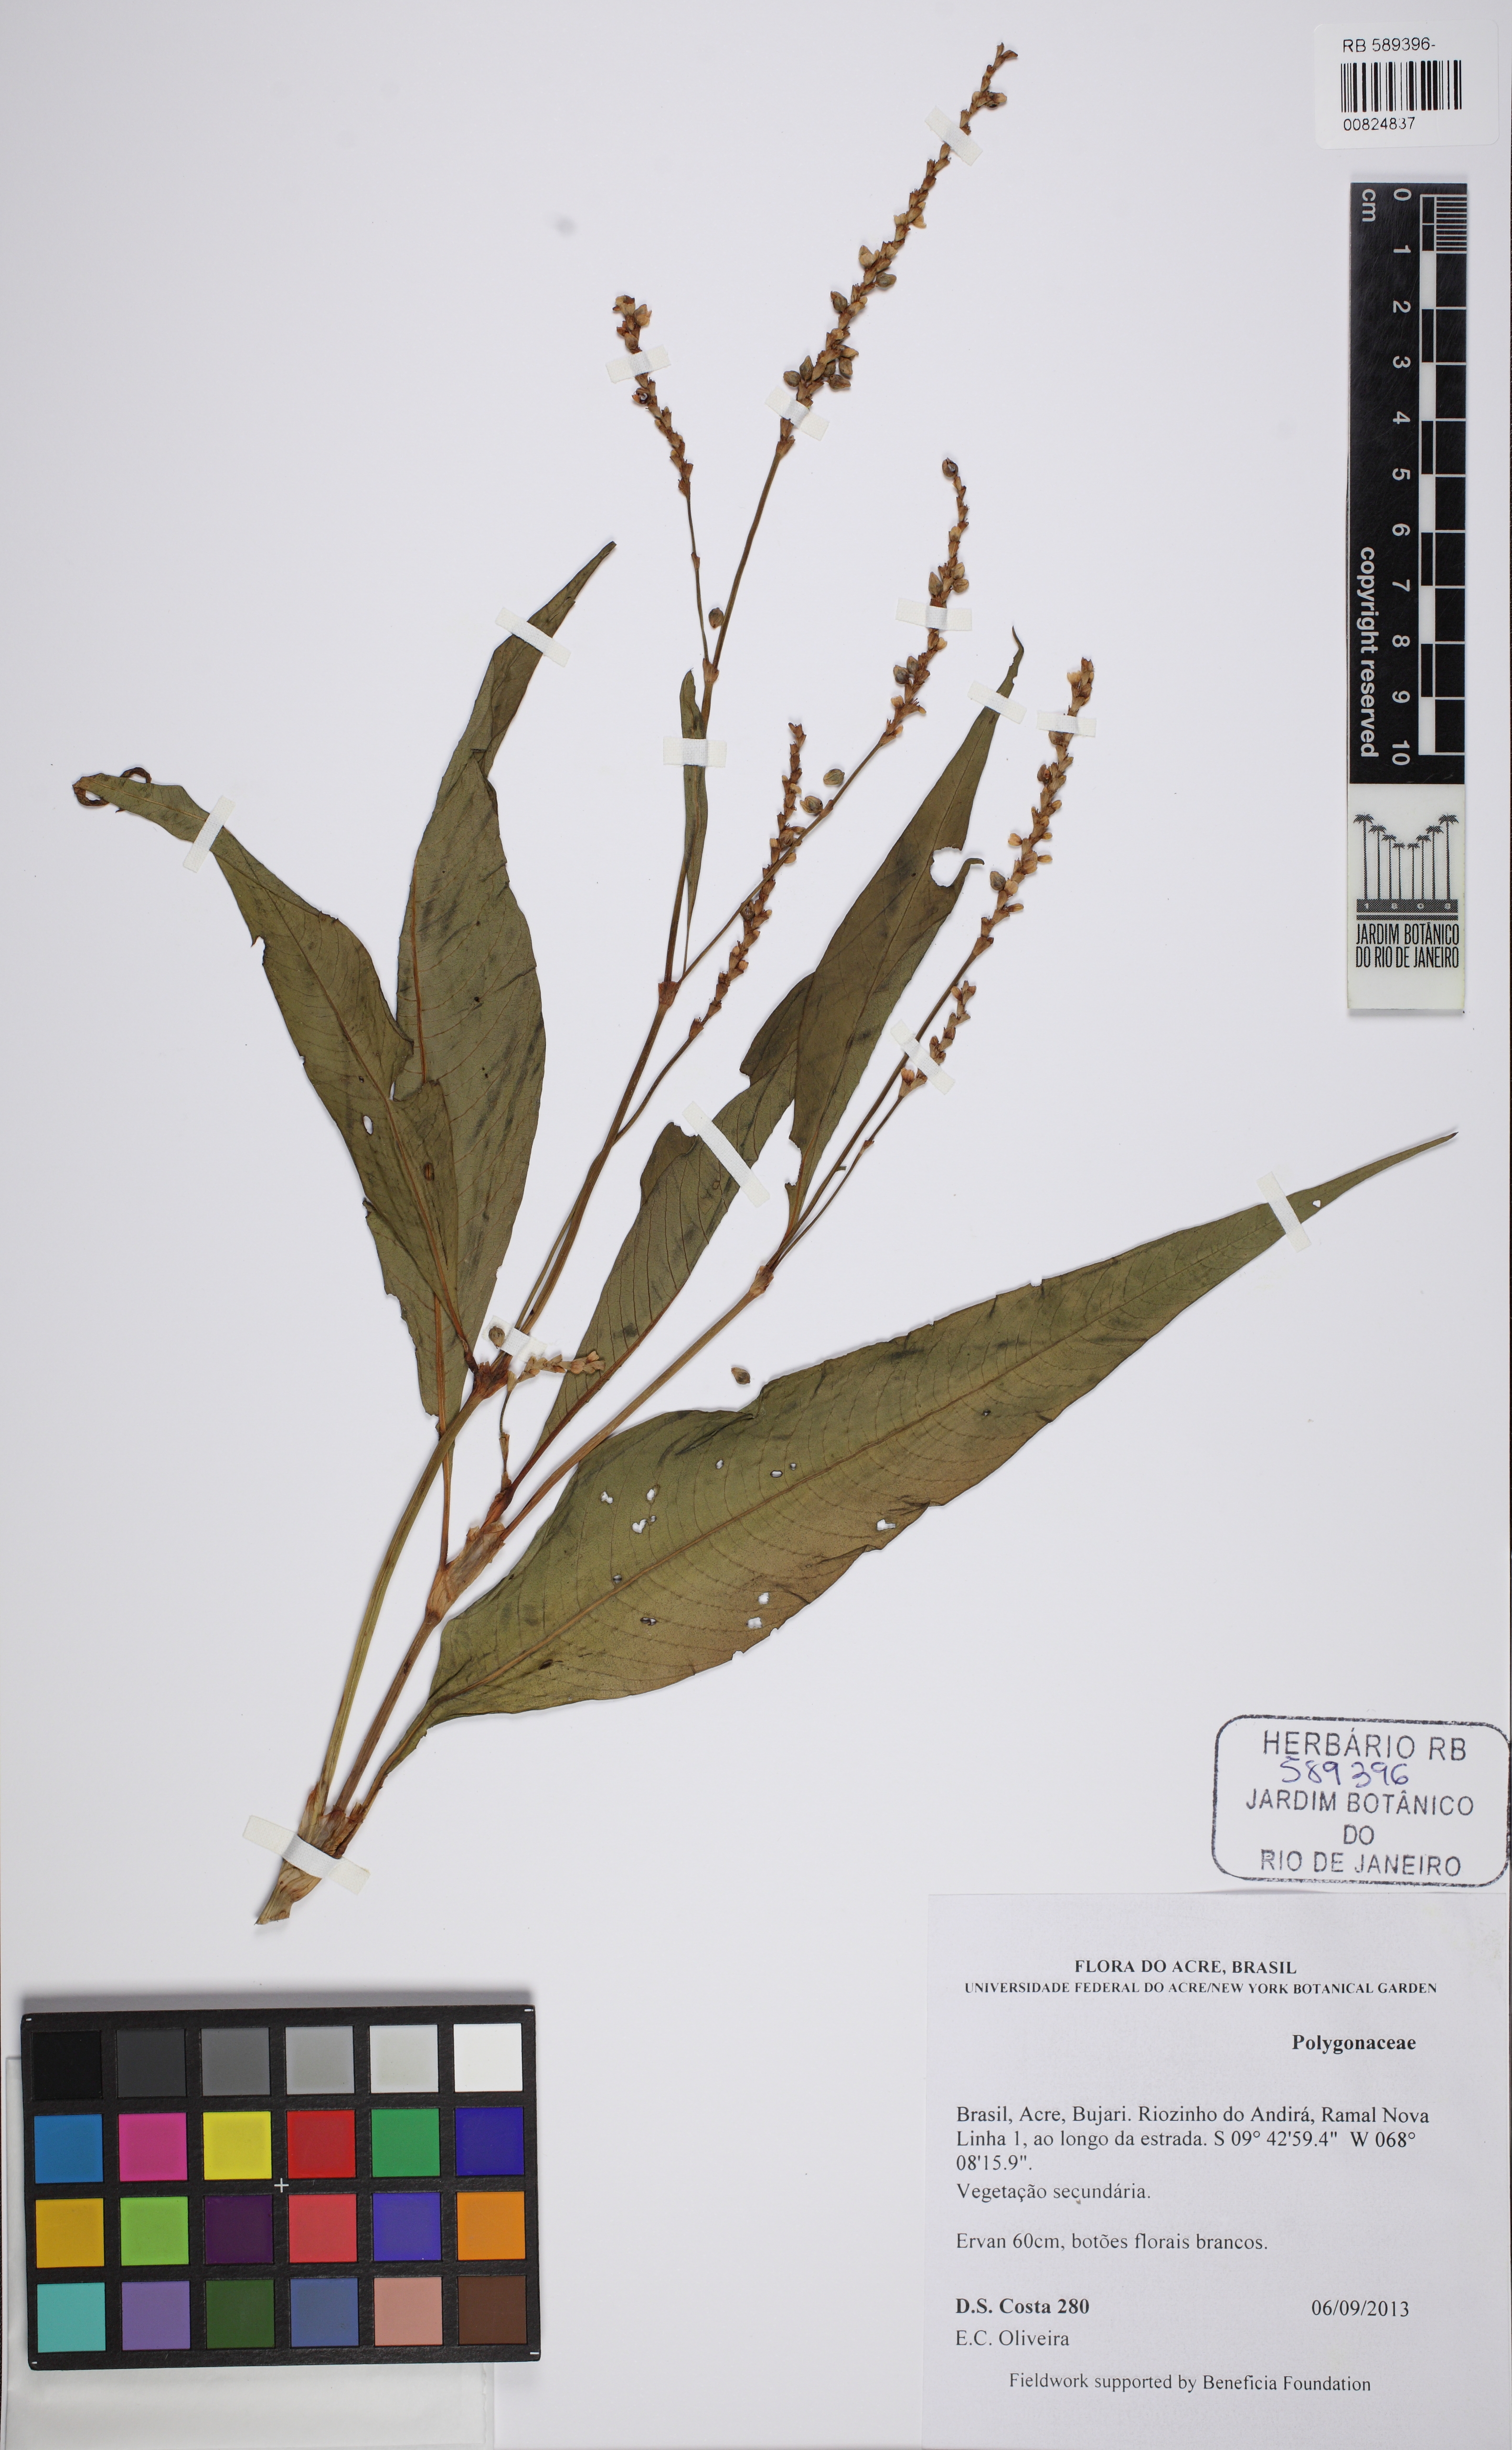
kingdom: Plantae
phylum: Tracheophyta
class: Magnoliopsida
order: Caryophyllales
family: Polygonaceae
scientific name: Polygonaceae
